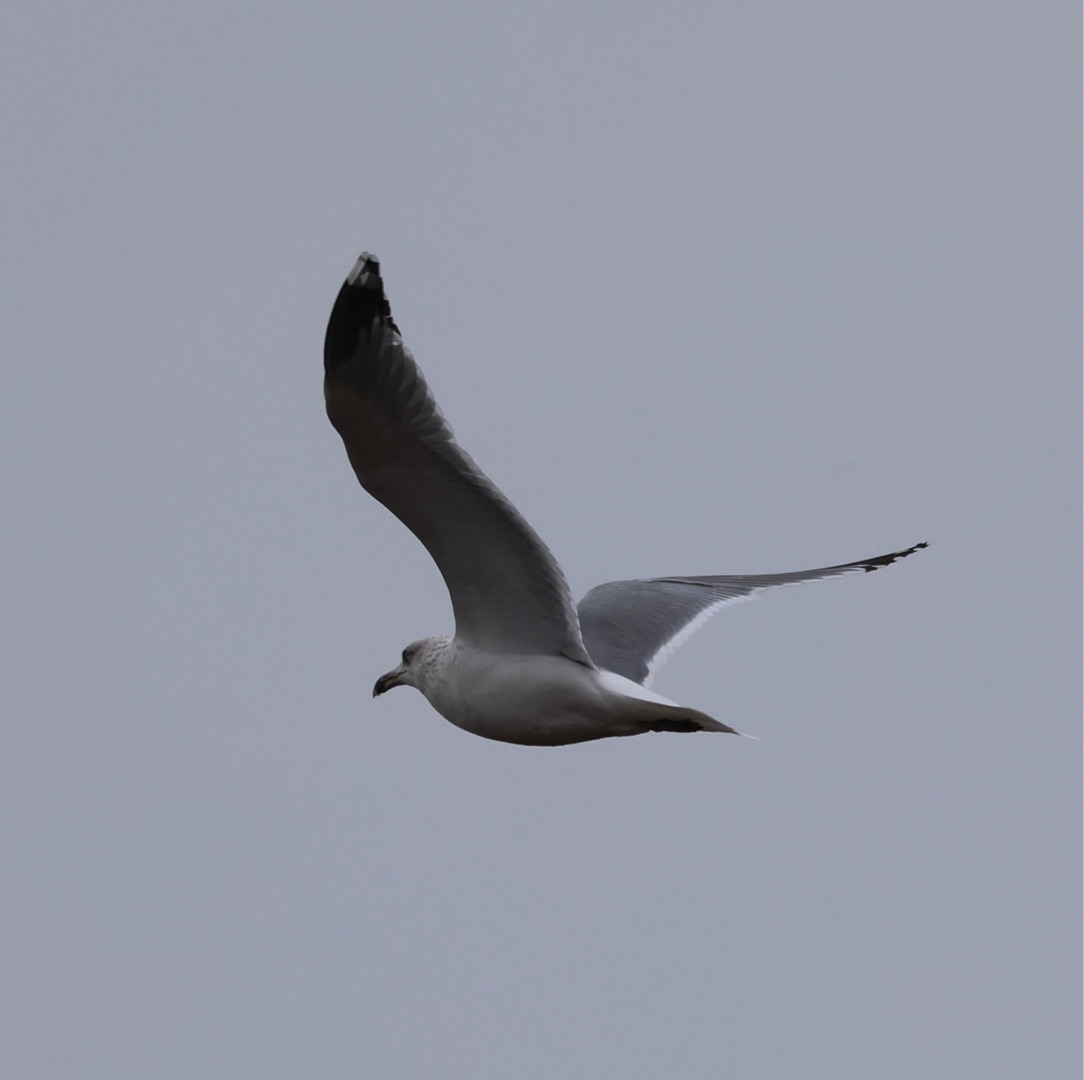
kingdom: Animalia
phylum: Chordata
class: Aves
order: Charadriiformes
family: Laridae
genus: Larus
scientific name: Larus argentatus
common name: Sølvmåge
